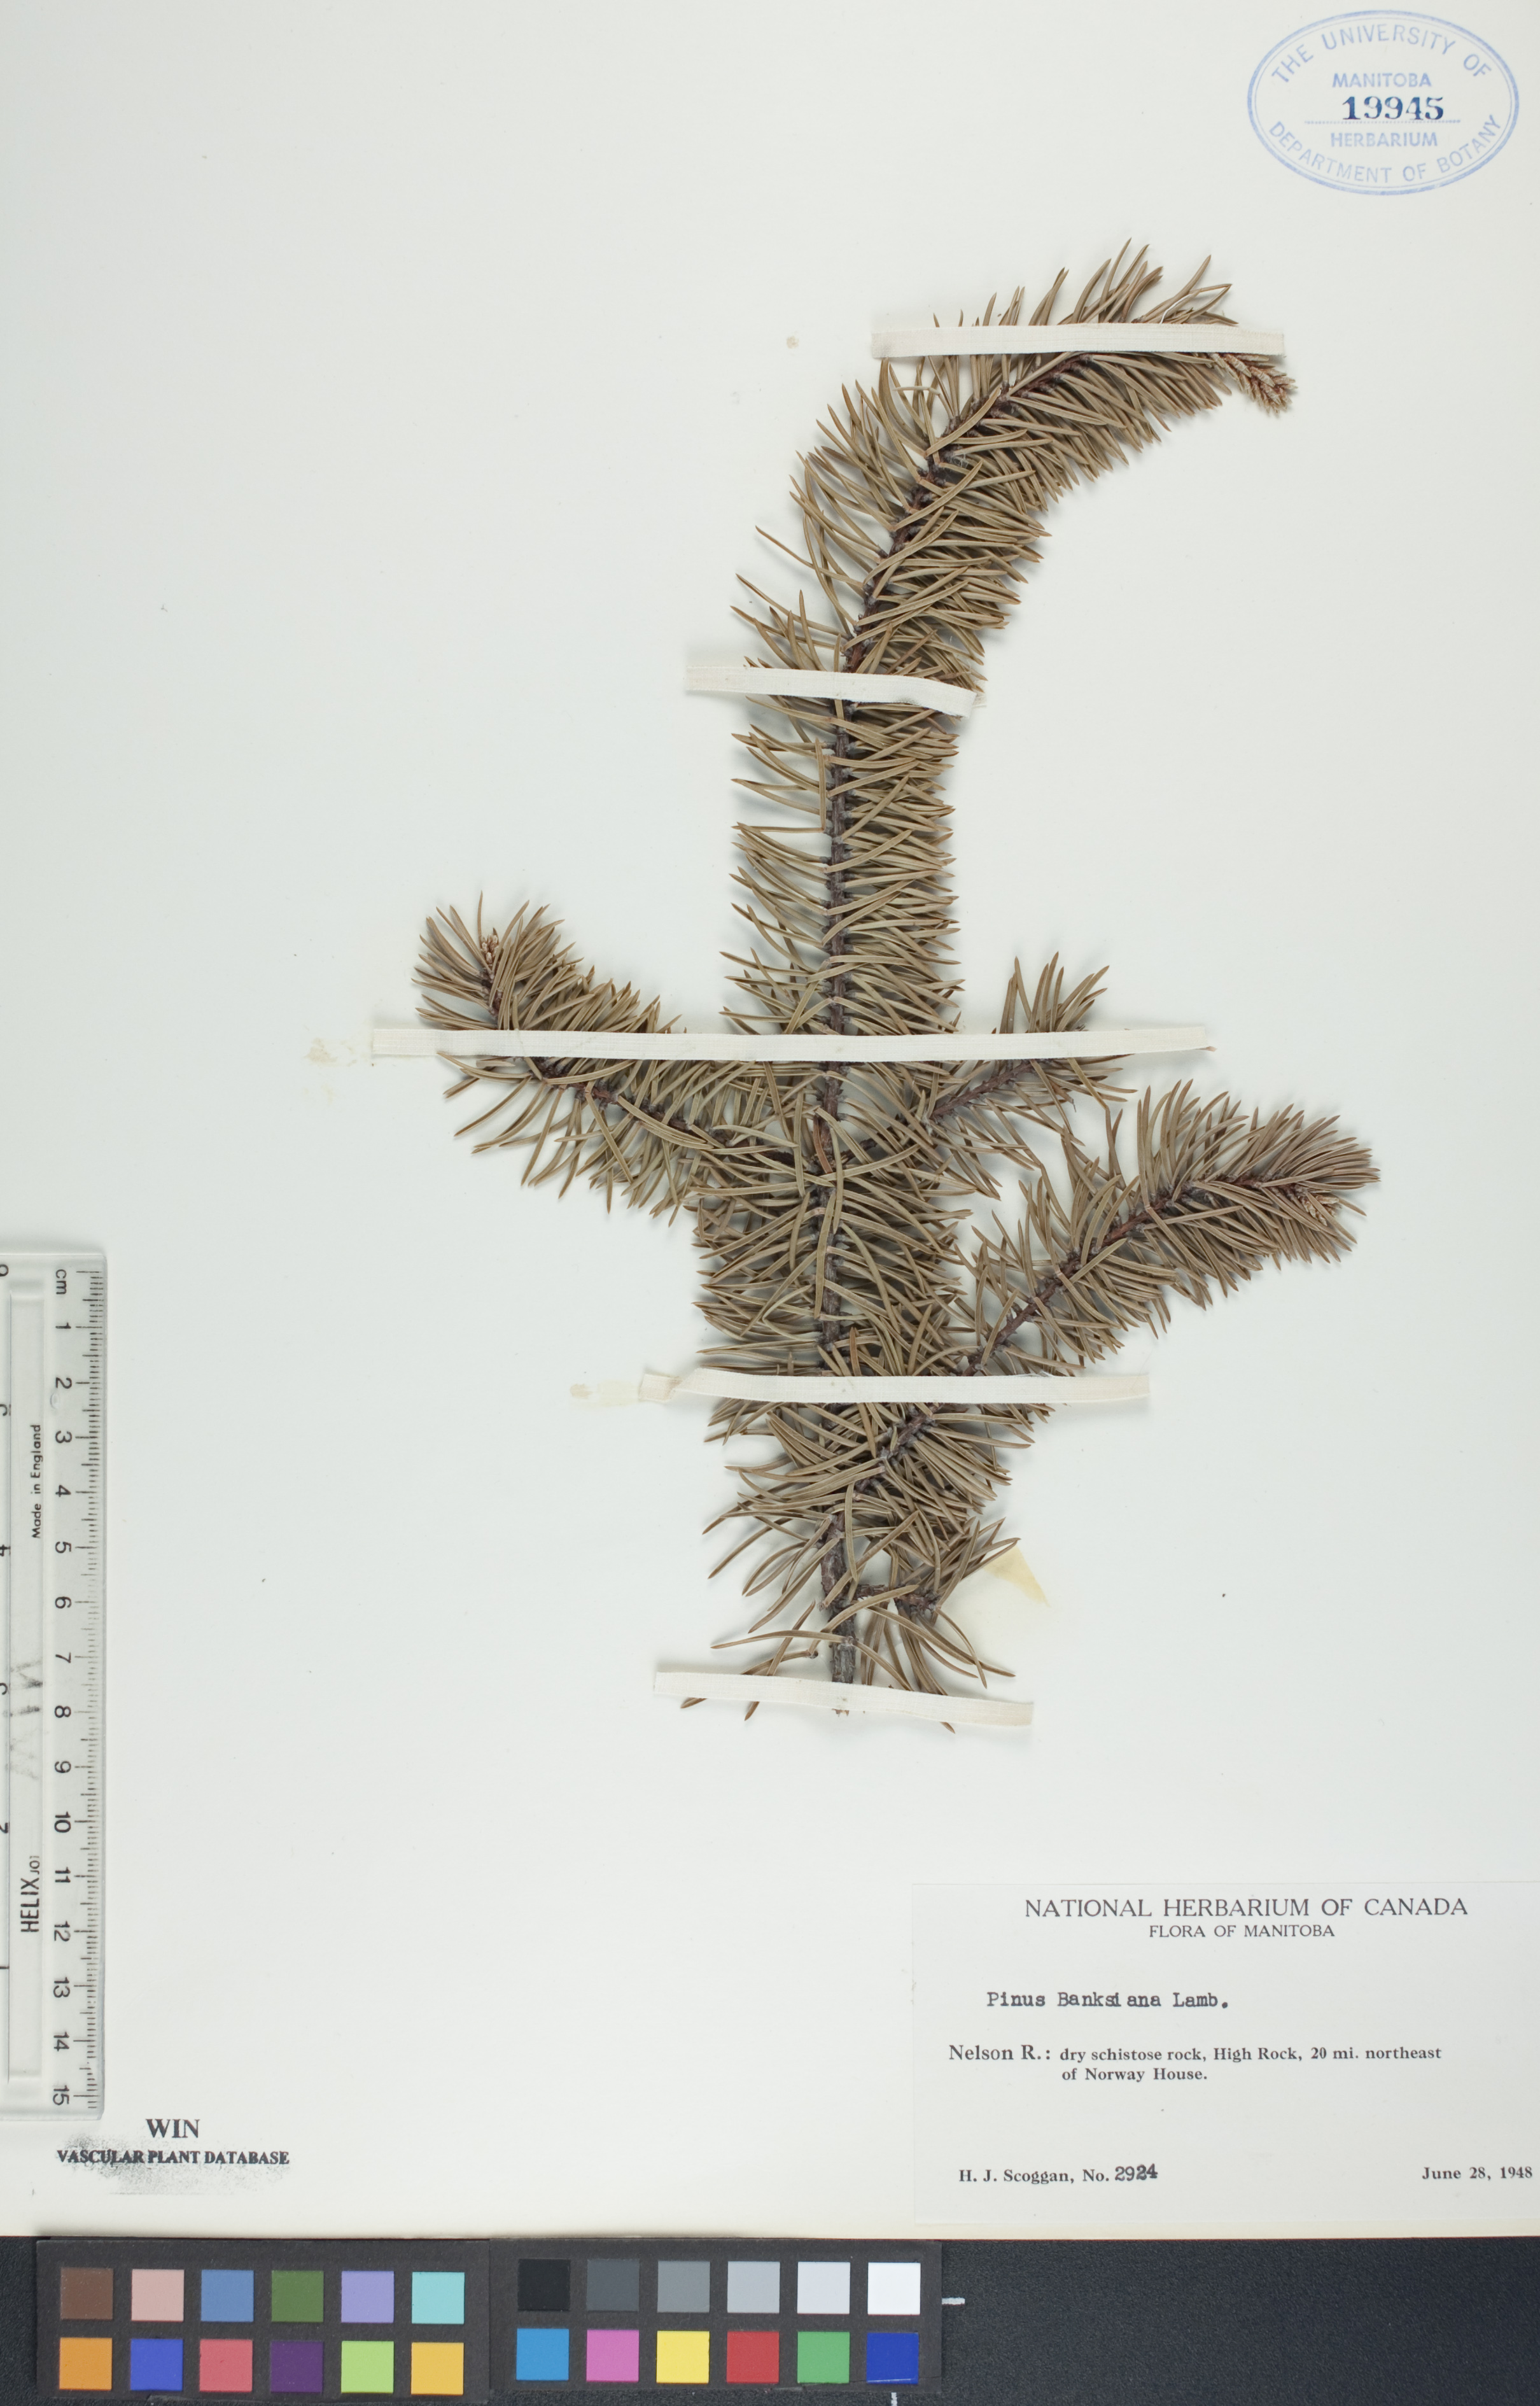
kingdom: Plantae
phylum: Tracheophyta
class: Pinopsida
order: Pinales
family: Pinaceae
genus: Pinus
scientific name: Pinus banksiana
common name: Jack pine
